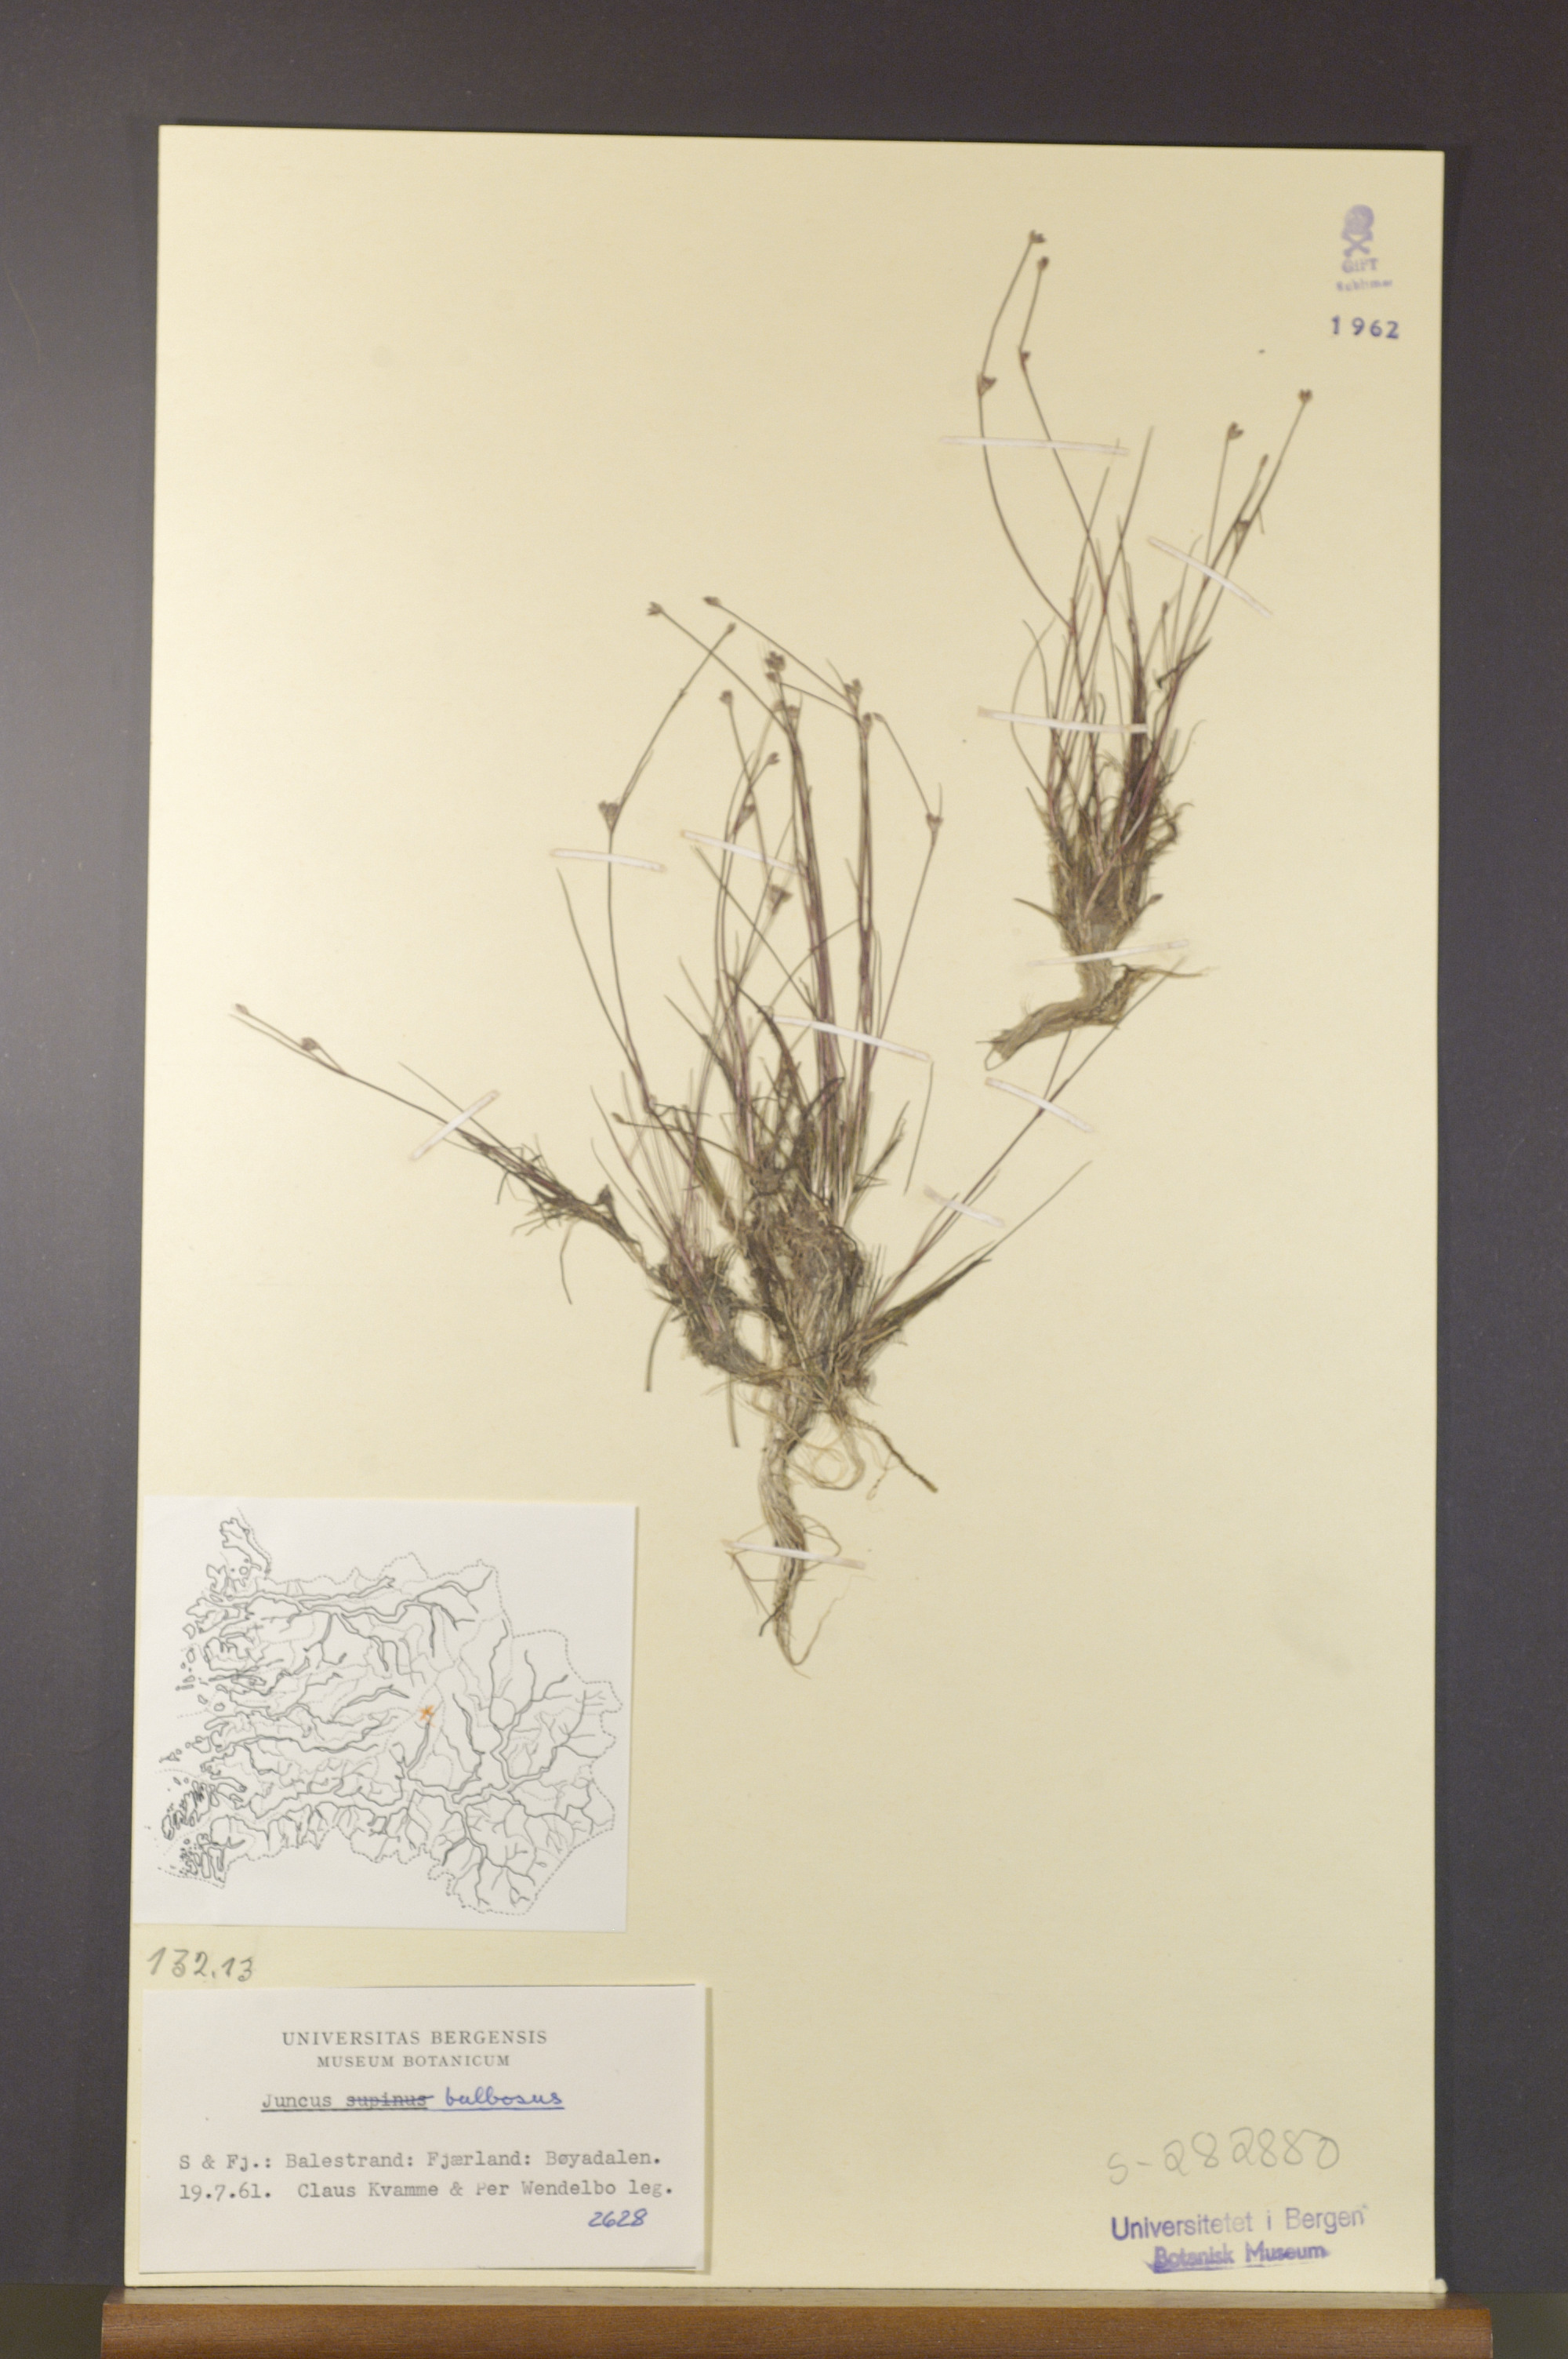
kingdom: Plantae
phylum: Tracheophyta
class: Liliopsida
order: Poales
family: Juncaceae
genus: Juncus
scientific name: Juncus compressus
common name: Round-fruited rush
